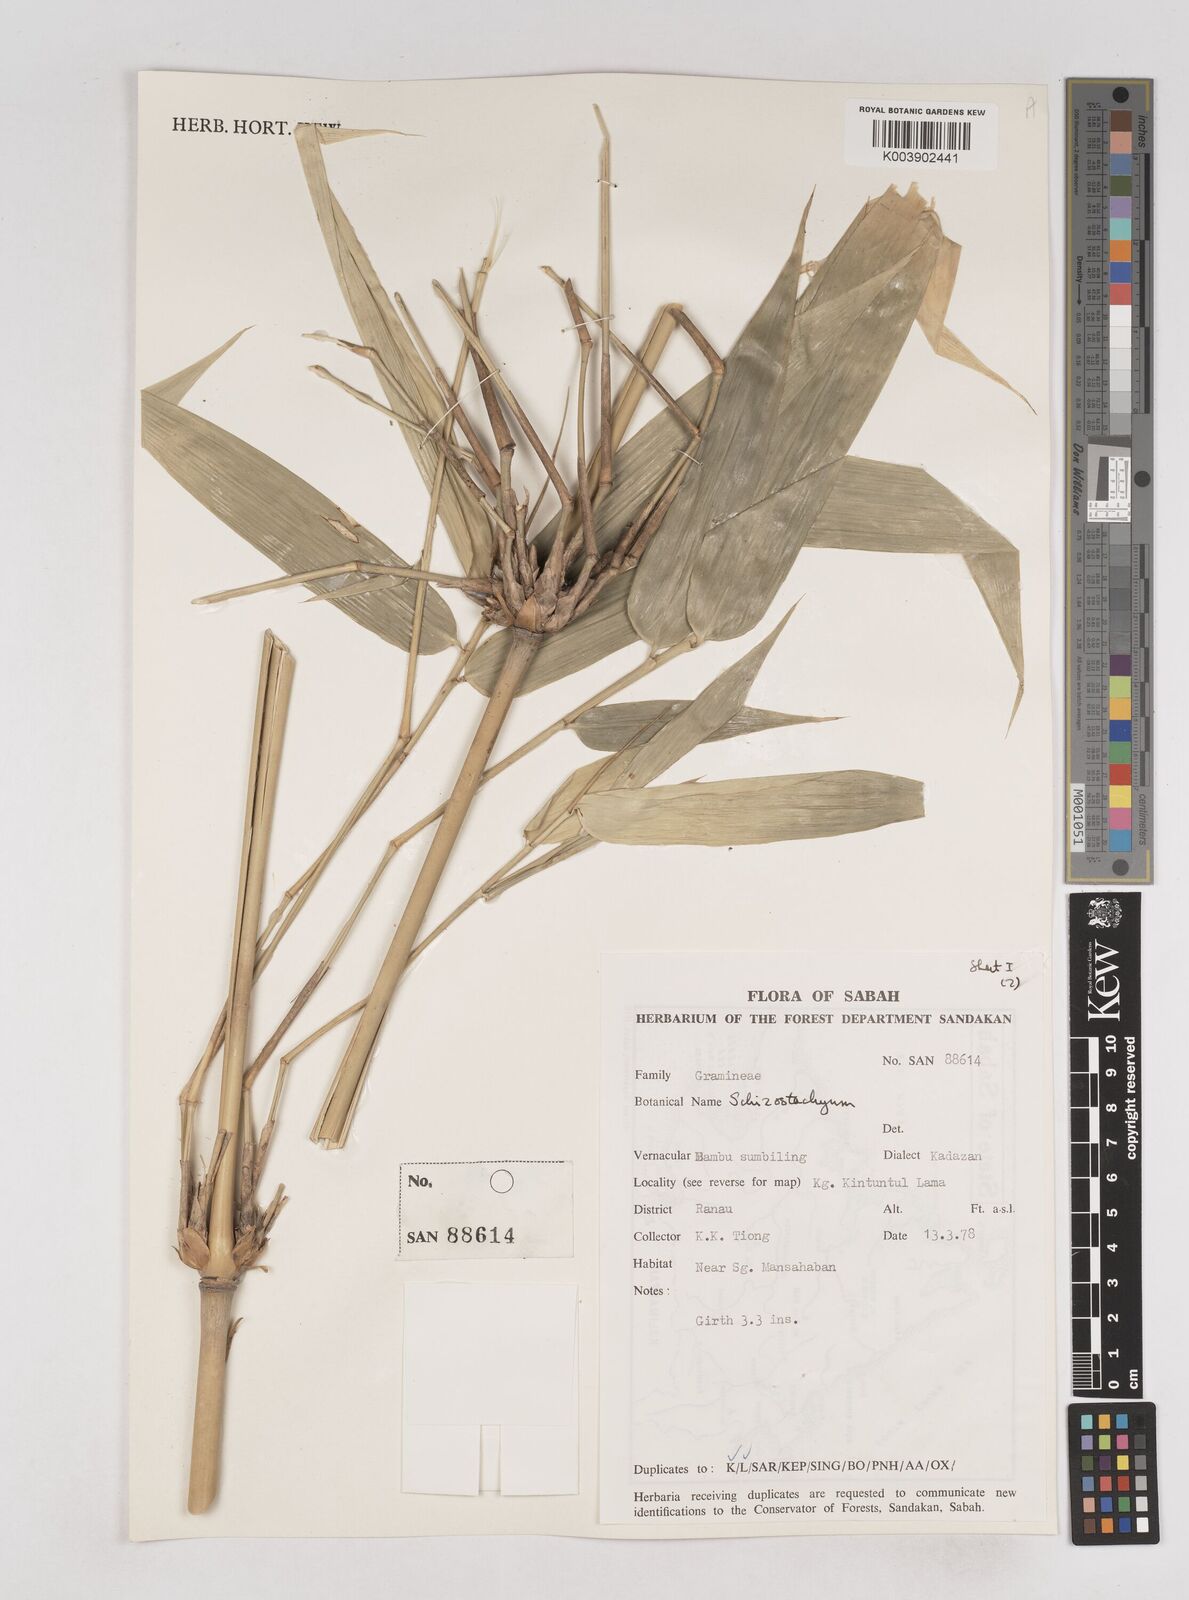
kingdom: Plantae
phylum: Tracheophyta
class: Liliopsida
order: Poales
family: Poaceae
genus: Schizostachyum
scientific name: Schizostachyum
